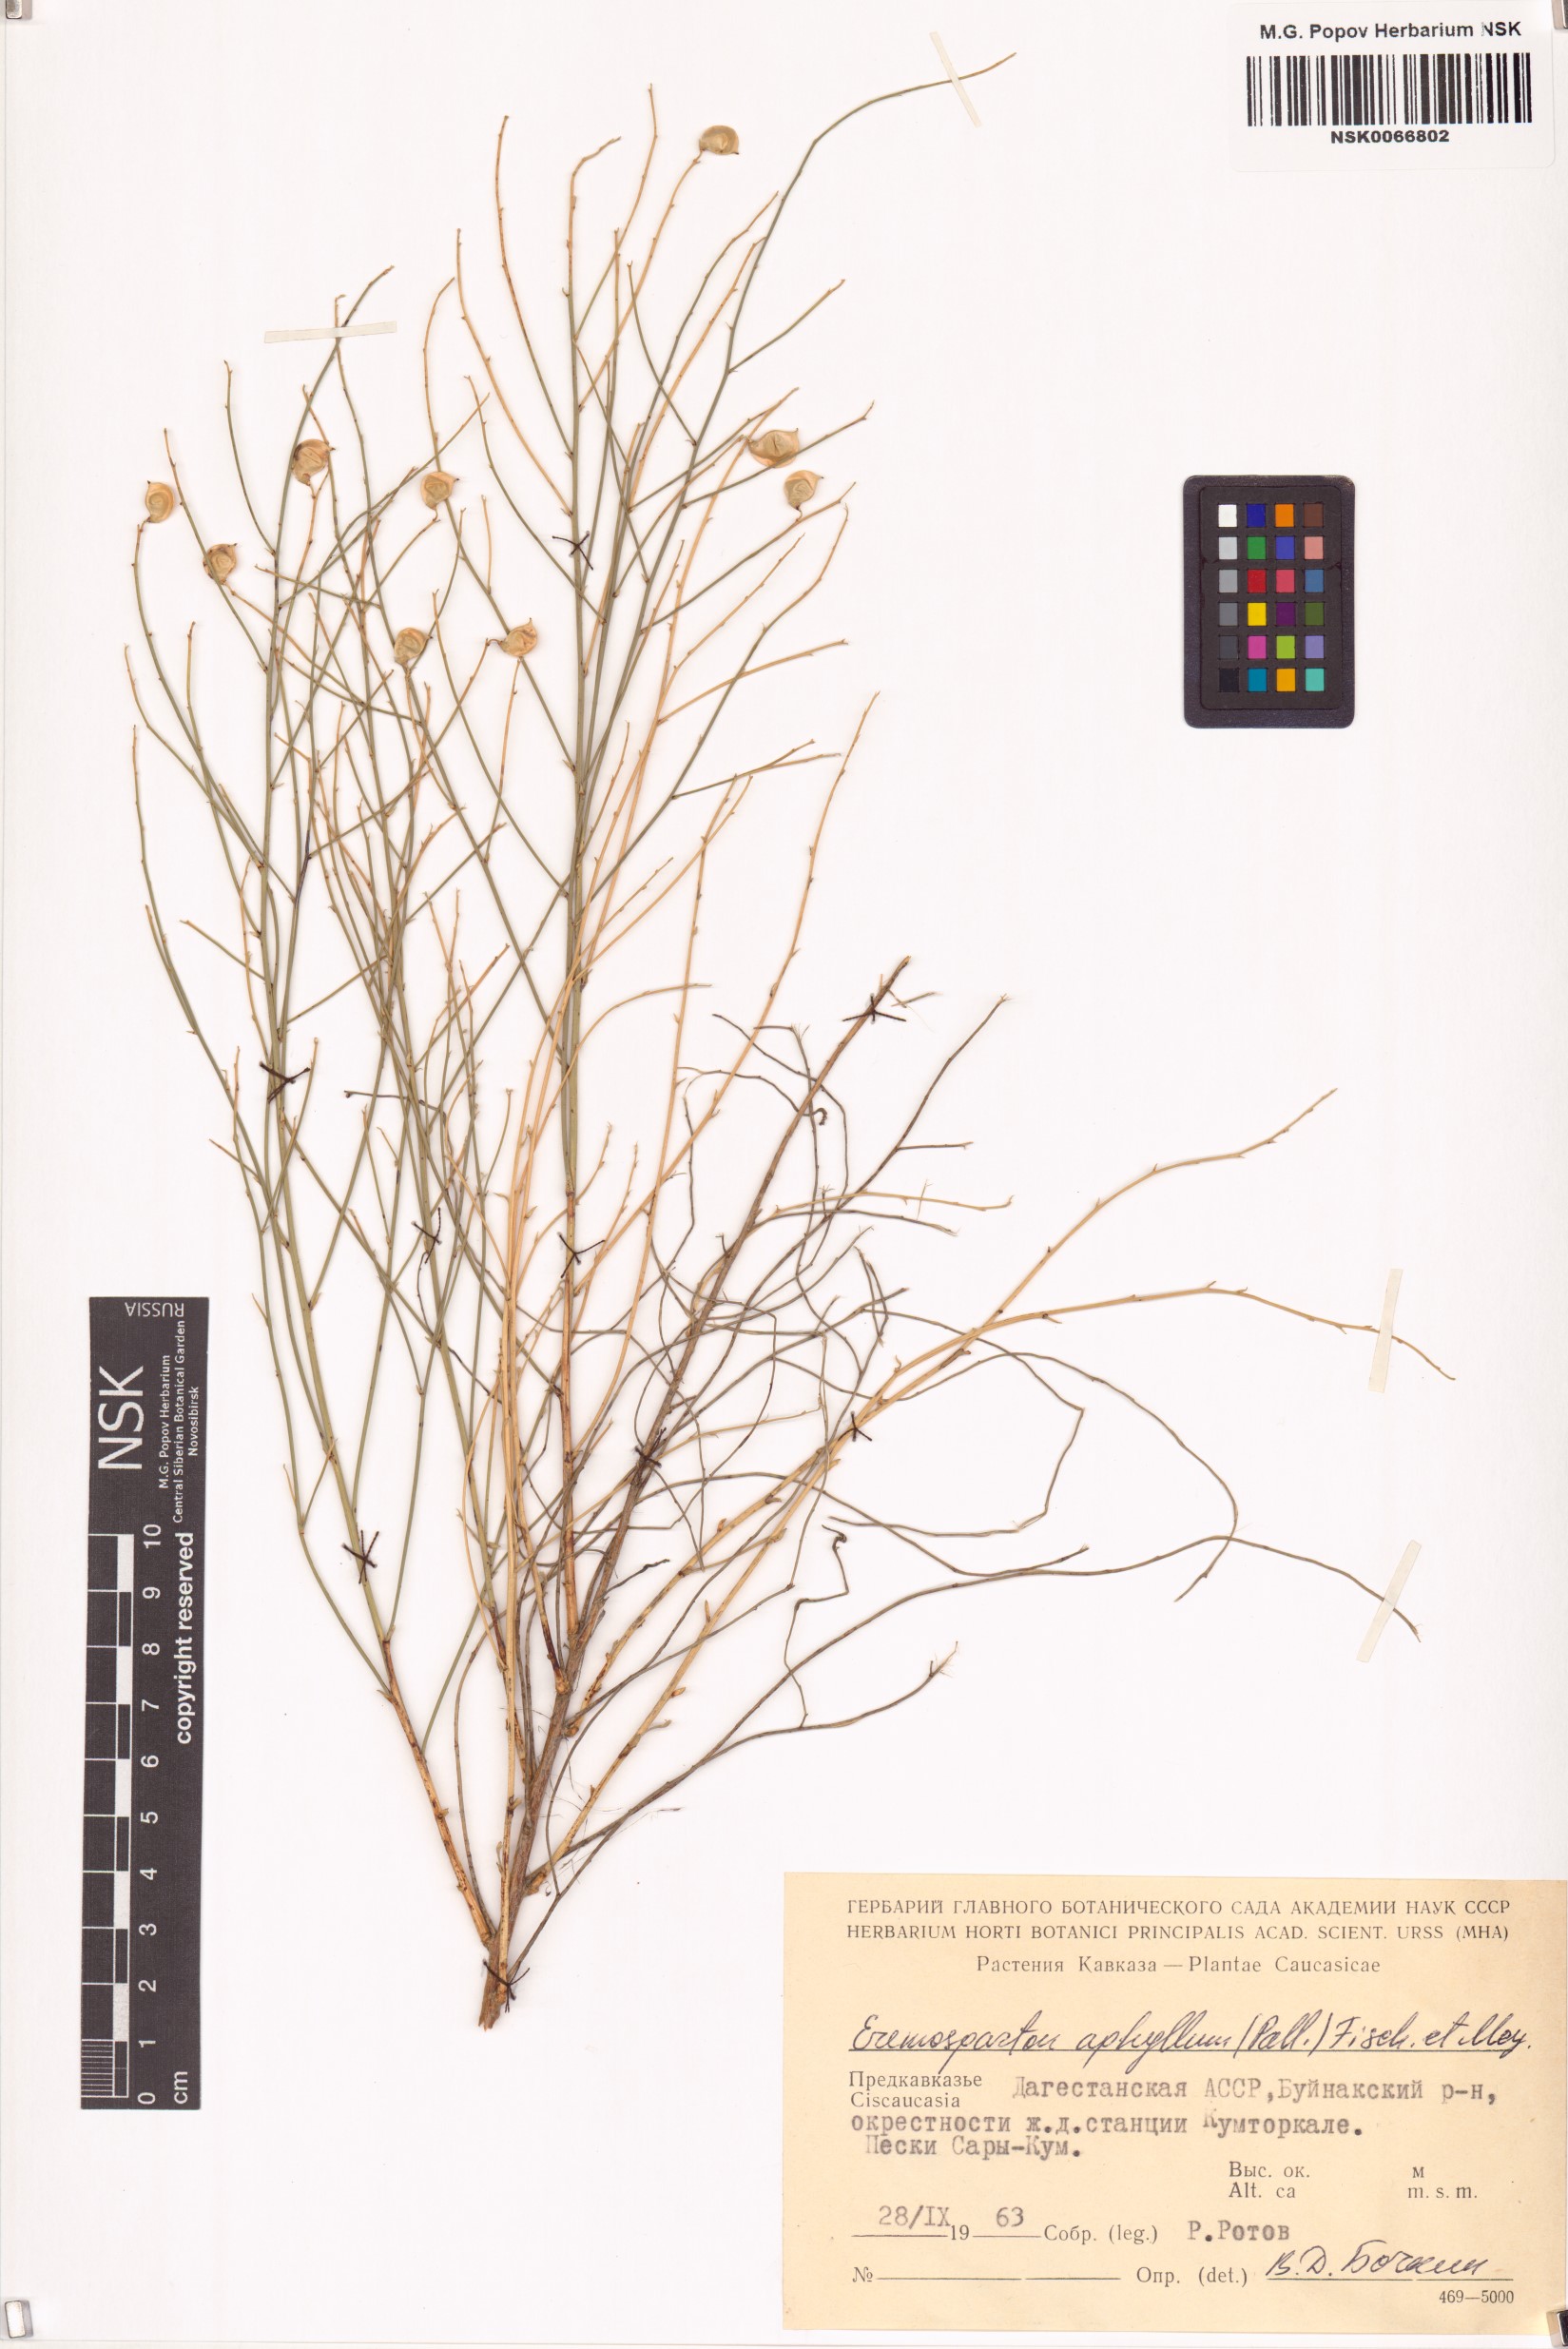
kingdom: Plantae
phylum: Tracheophyta
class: Magnoliopsida
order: Fabales
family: Fabaceae
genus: Eremosparton
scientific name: Eremosparton aphyllum
